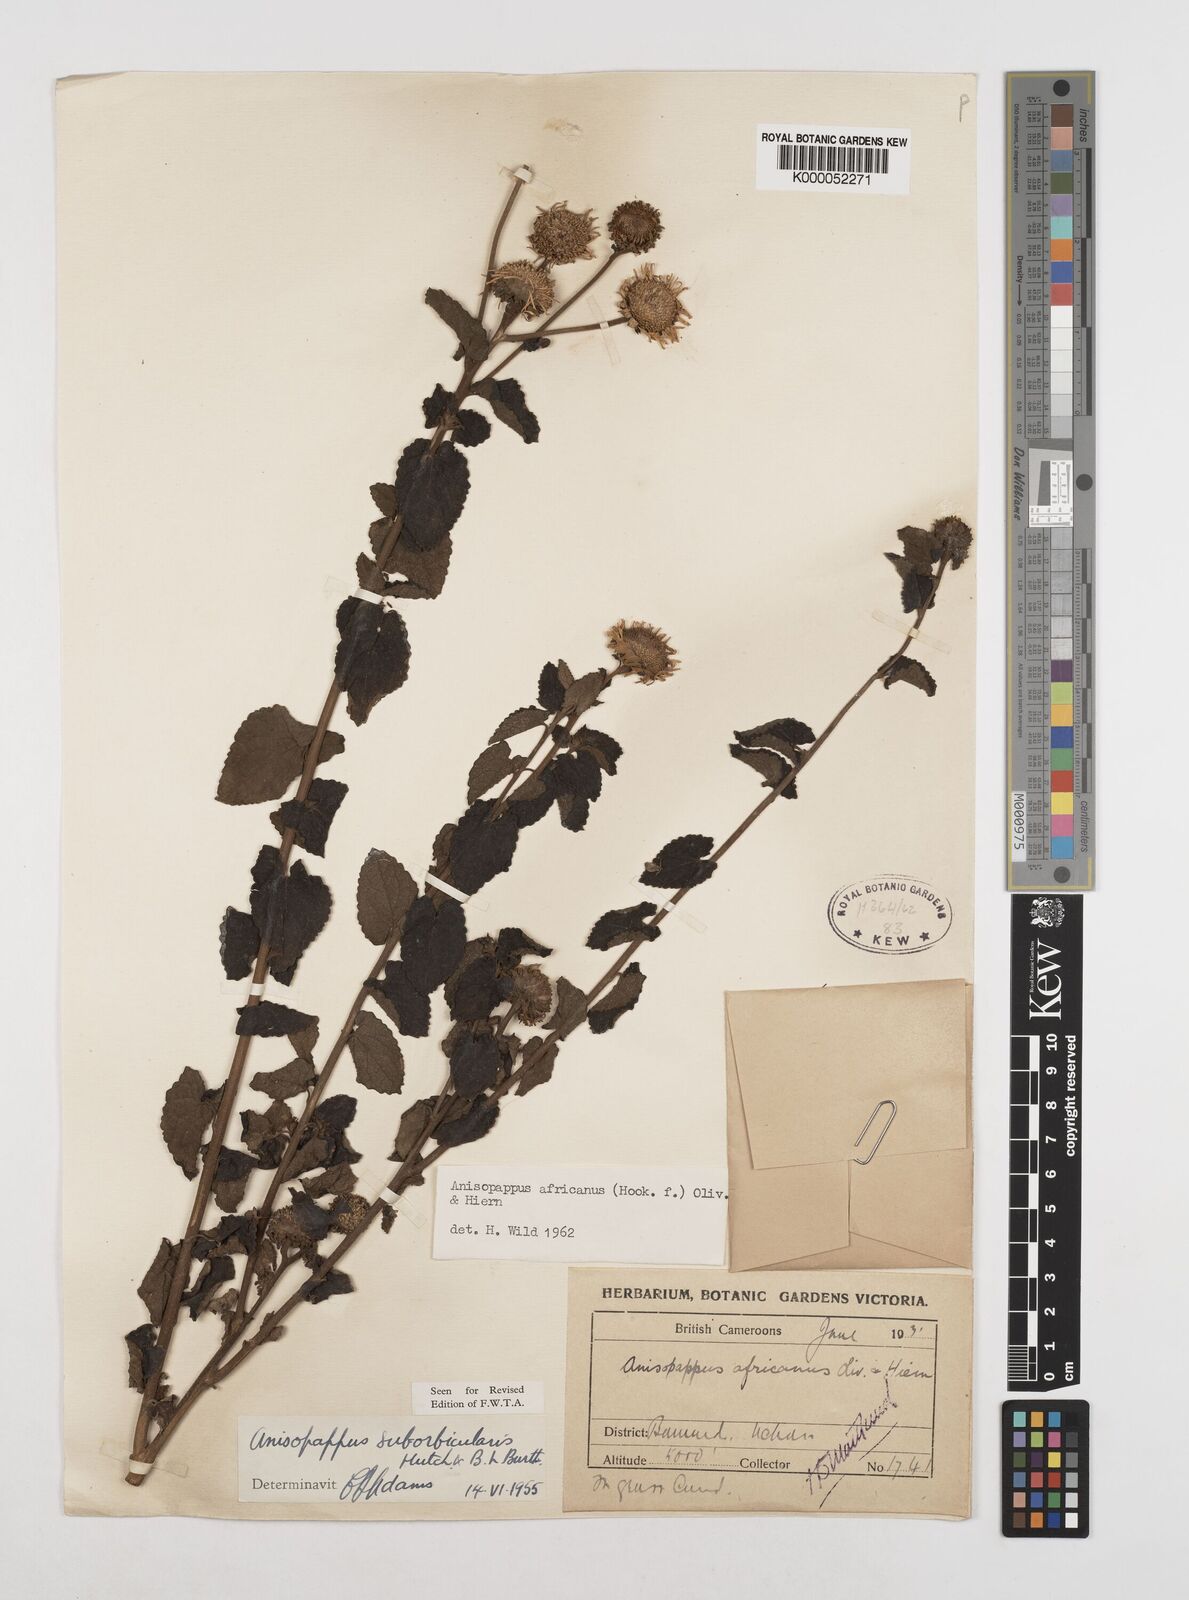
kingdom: Plantae
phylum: Tracheophyta
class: Magnoliopsida
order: Asterales
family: Asteraceae
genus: Anisopappus
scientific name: Anisopappus chinensis
